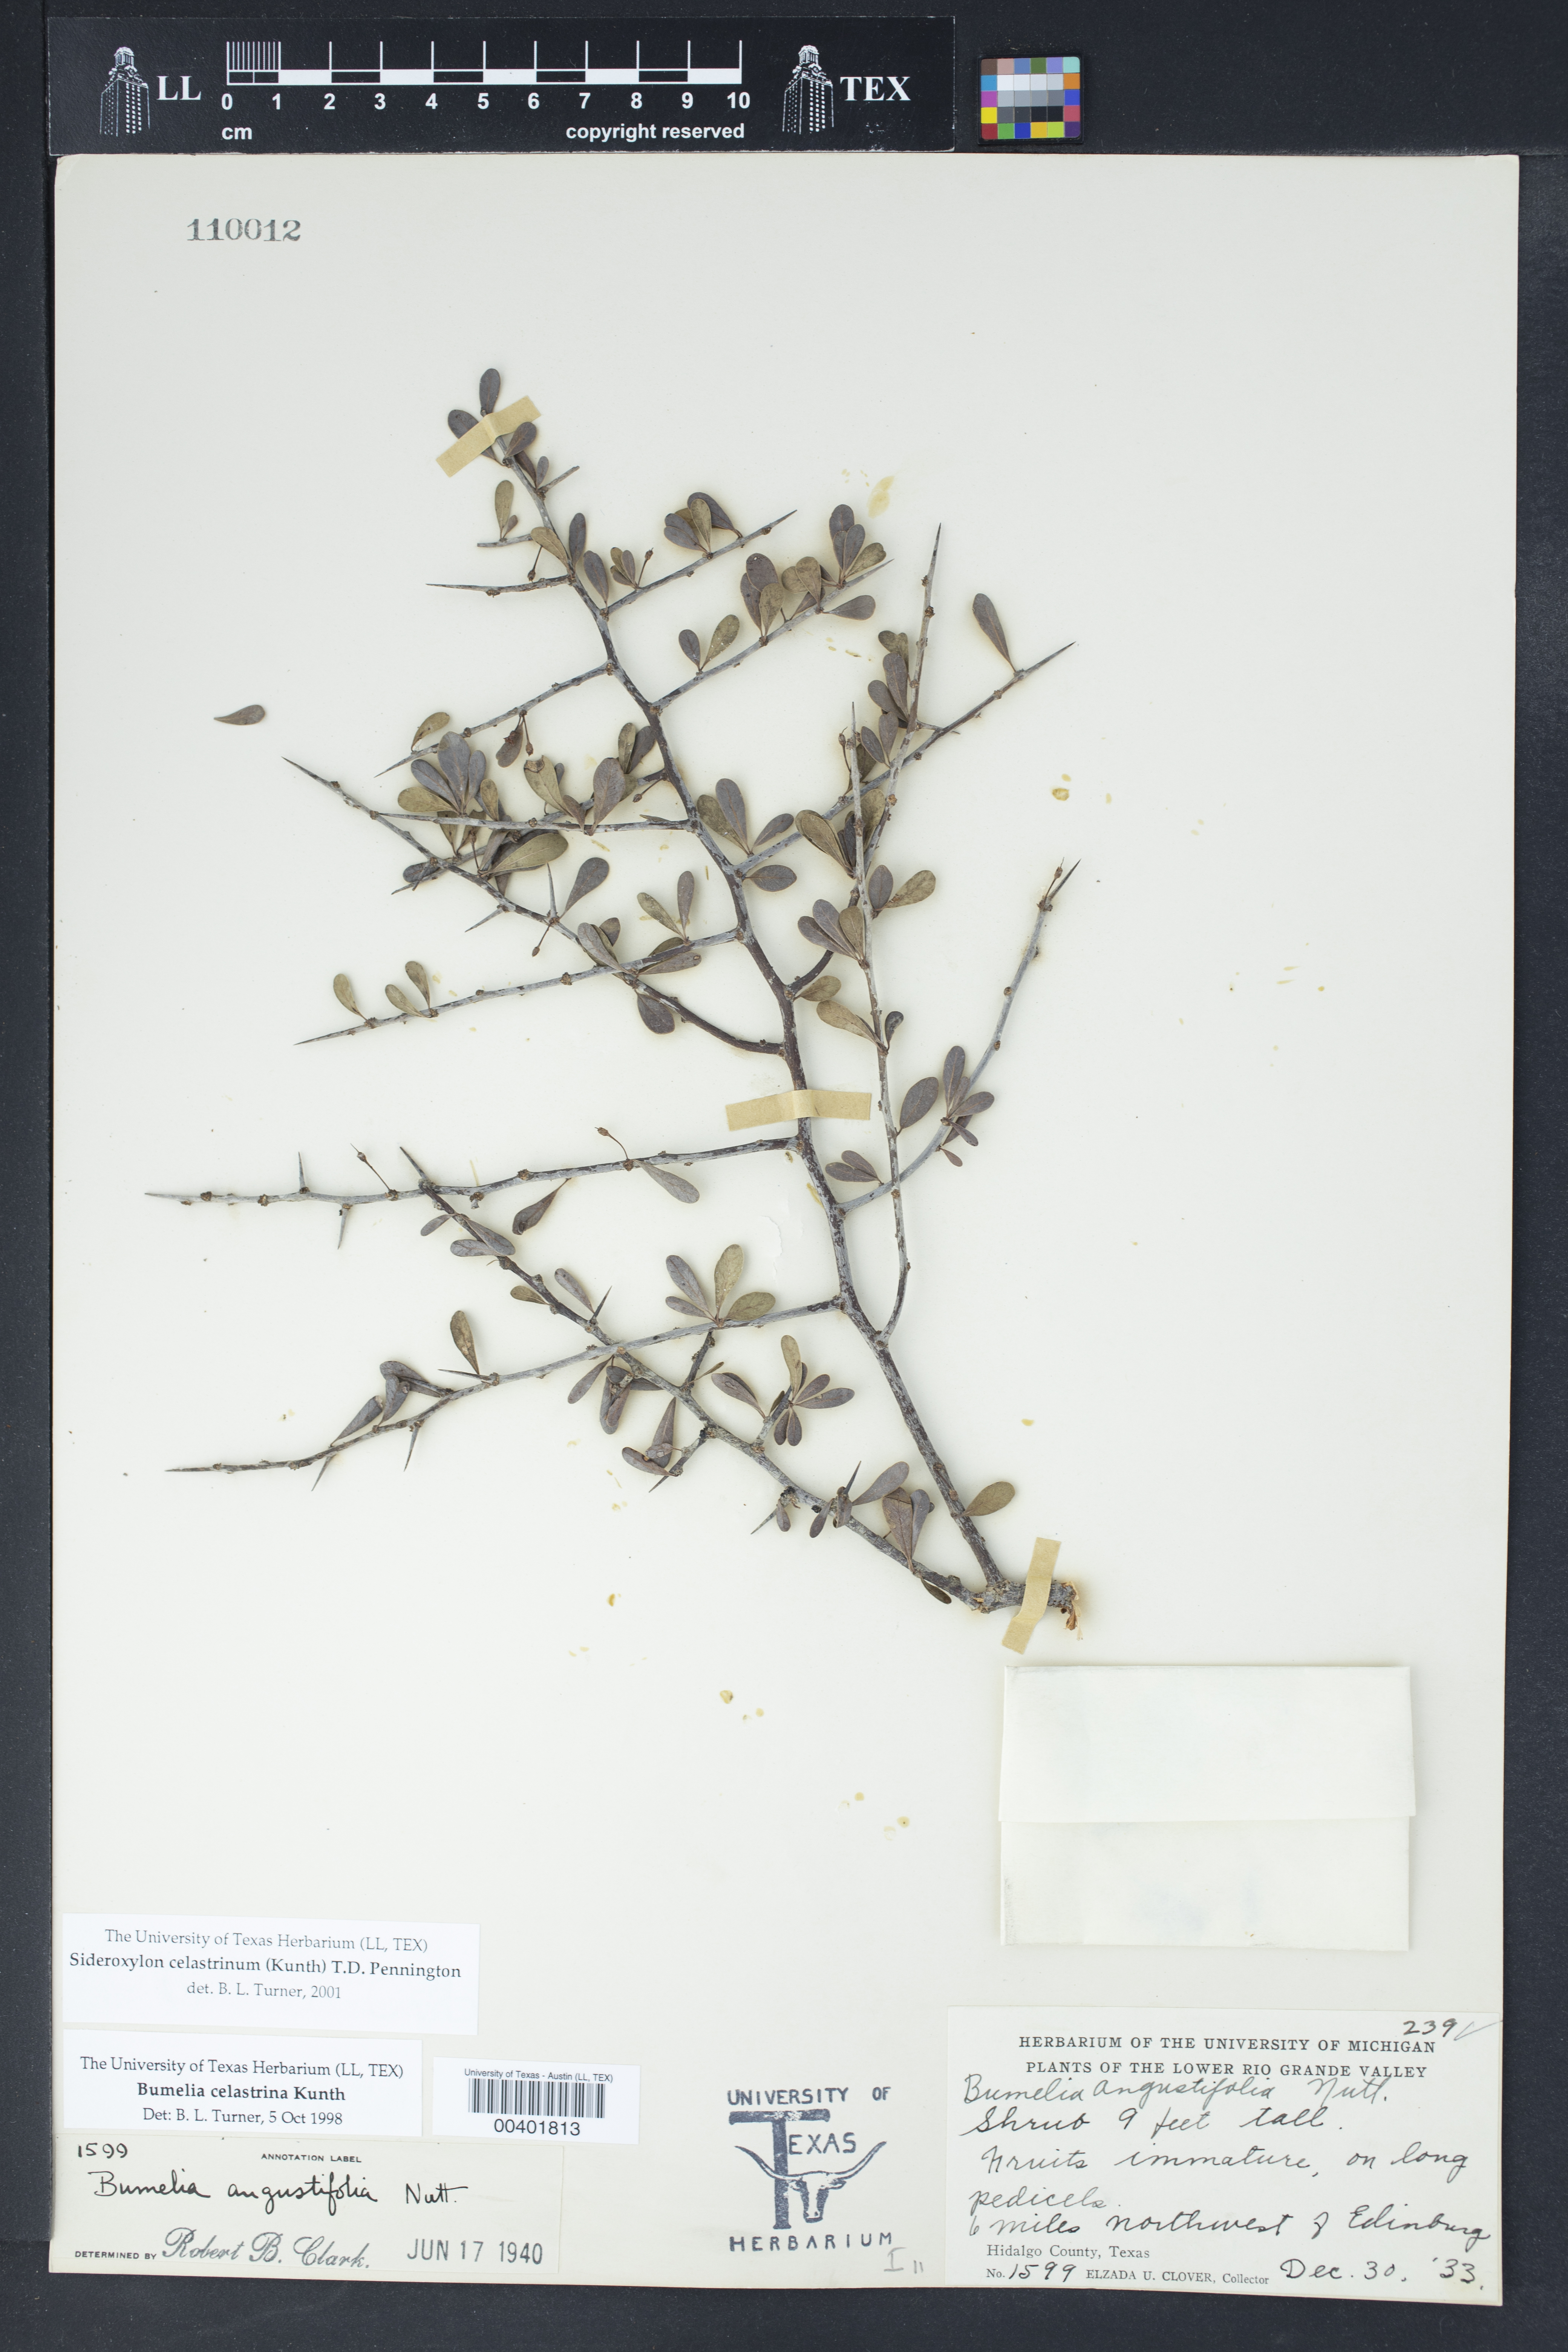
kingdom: Plantae
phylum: Tracheophyta
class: Magnoliopsida
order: Ericales
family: Sapotaceae
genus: Sideroxylon
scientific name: Sideroxylon celastrinum
